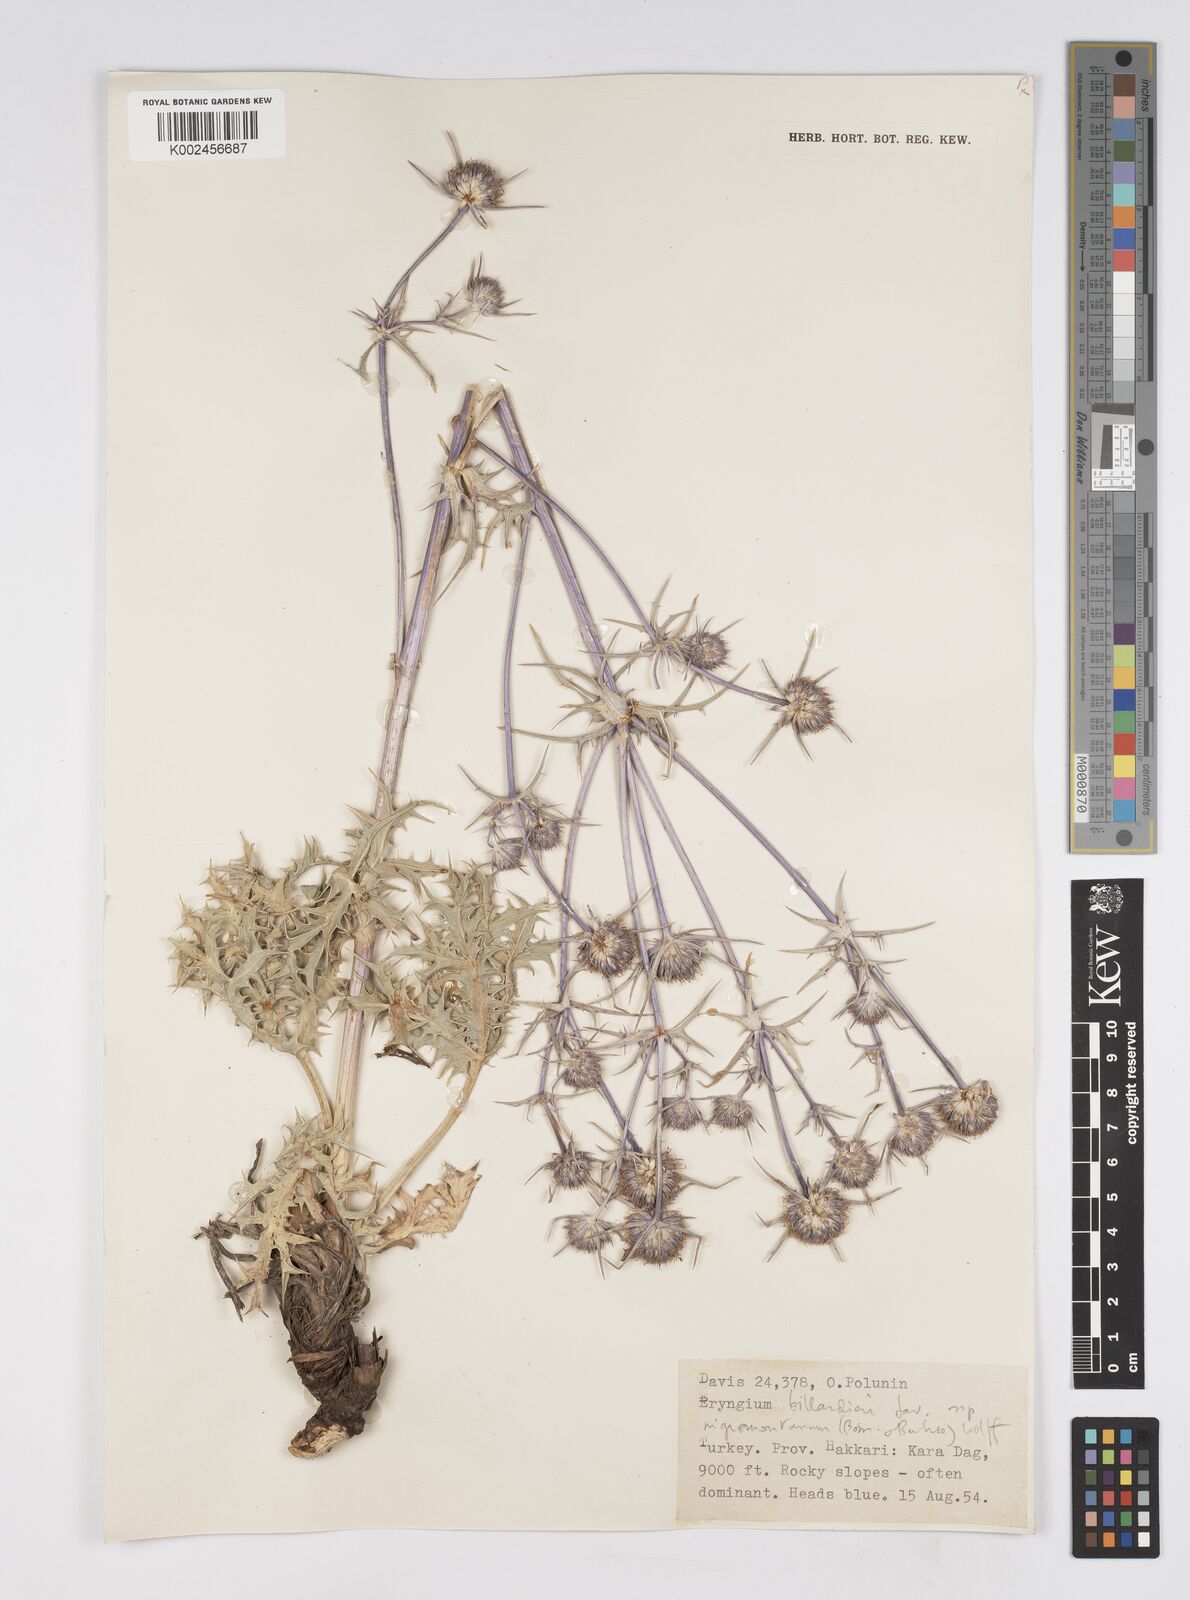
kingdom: Plantae
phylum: Tracheophyta
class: Magnoliopsida
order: Apiales
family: Apiaceae
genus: Eryngium
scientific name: Eryngium billardierei
